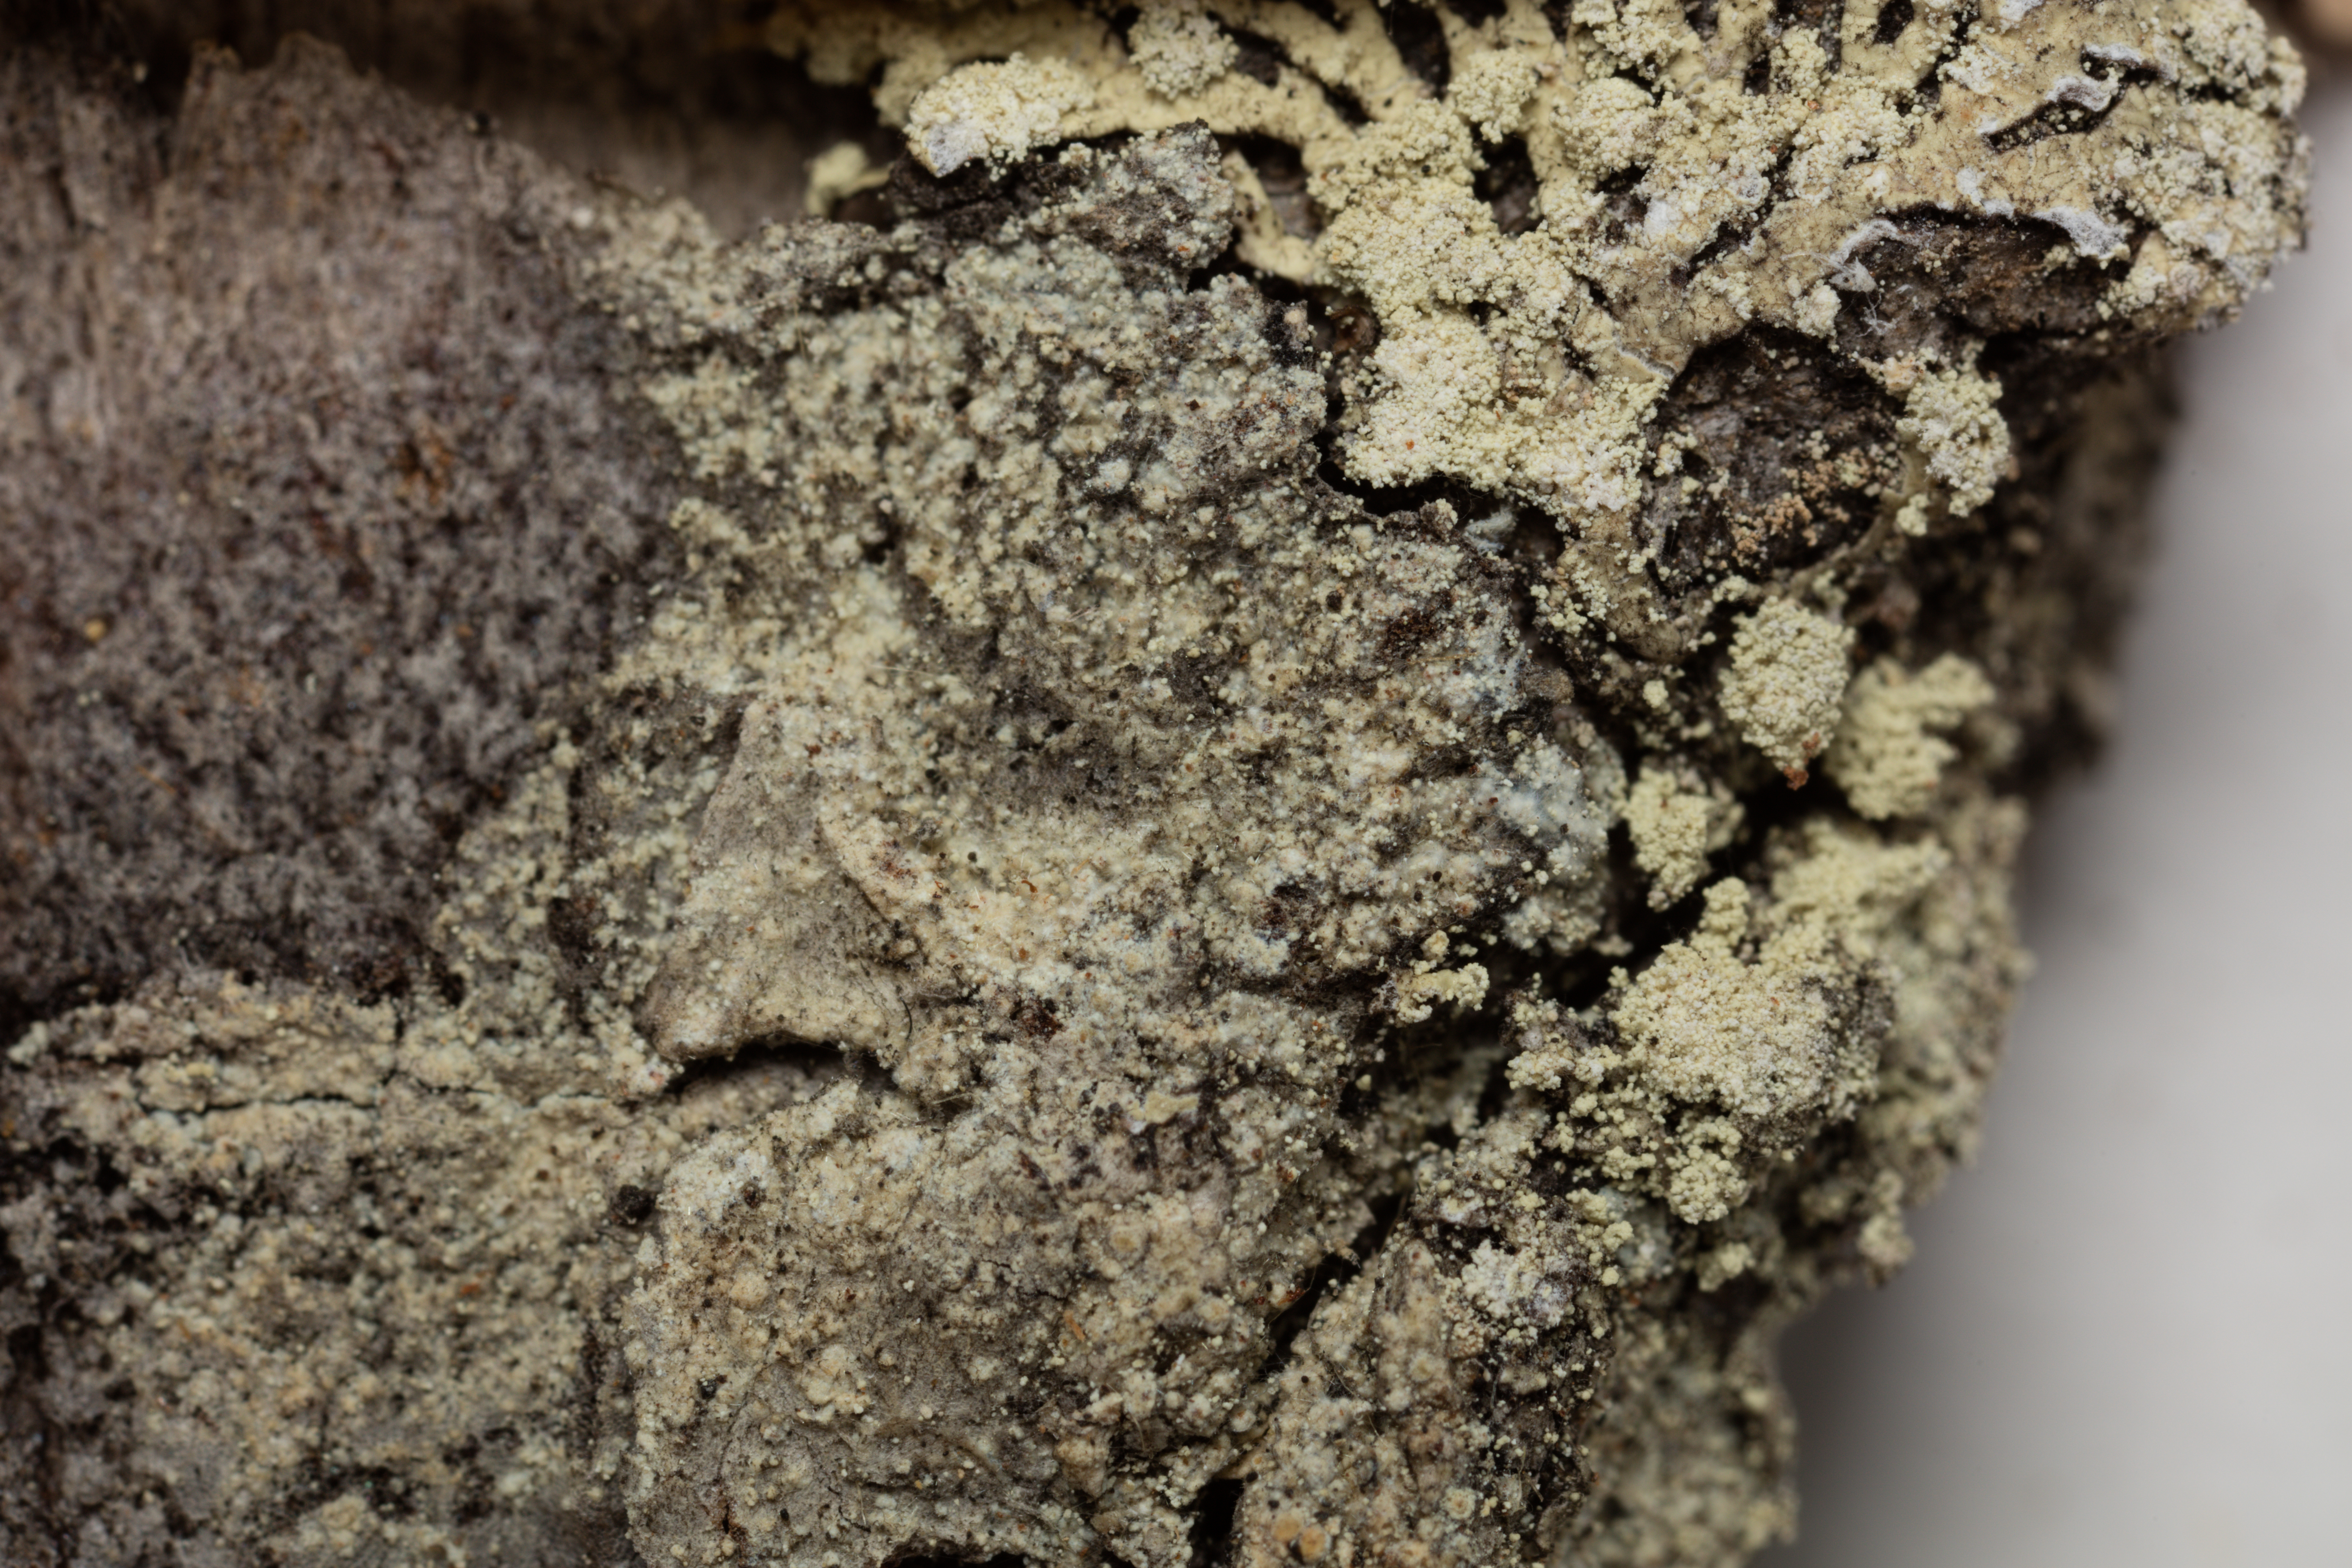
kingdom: Fungi
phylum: Ascomycota
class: Lecanoromycetes
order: Lecanorales
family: Parmeliaceae
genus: Parmeliopsis
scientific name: Parmeliopsis ambigua
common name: Green starburst lichen
